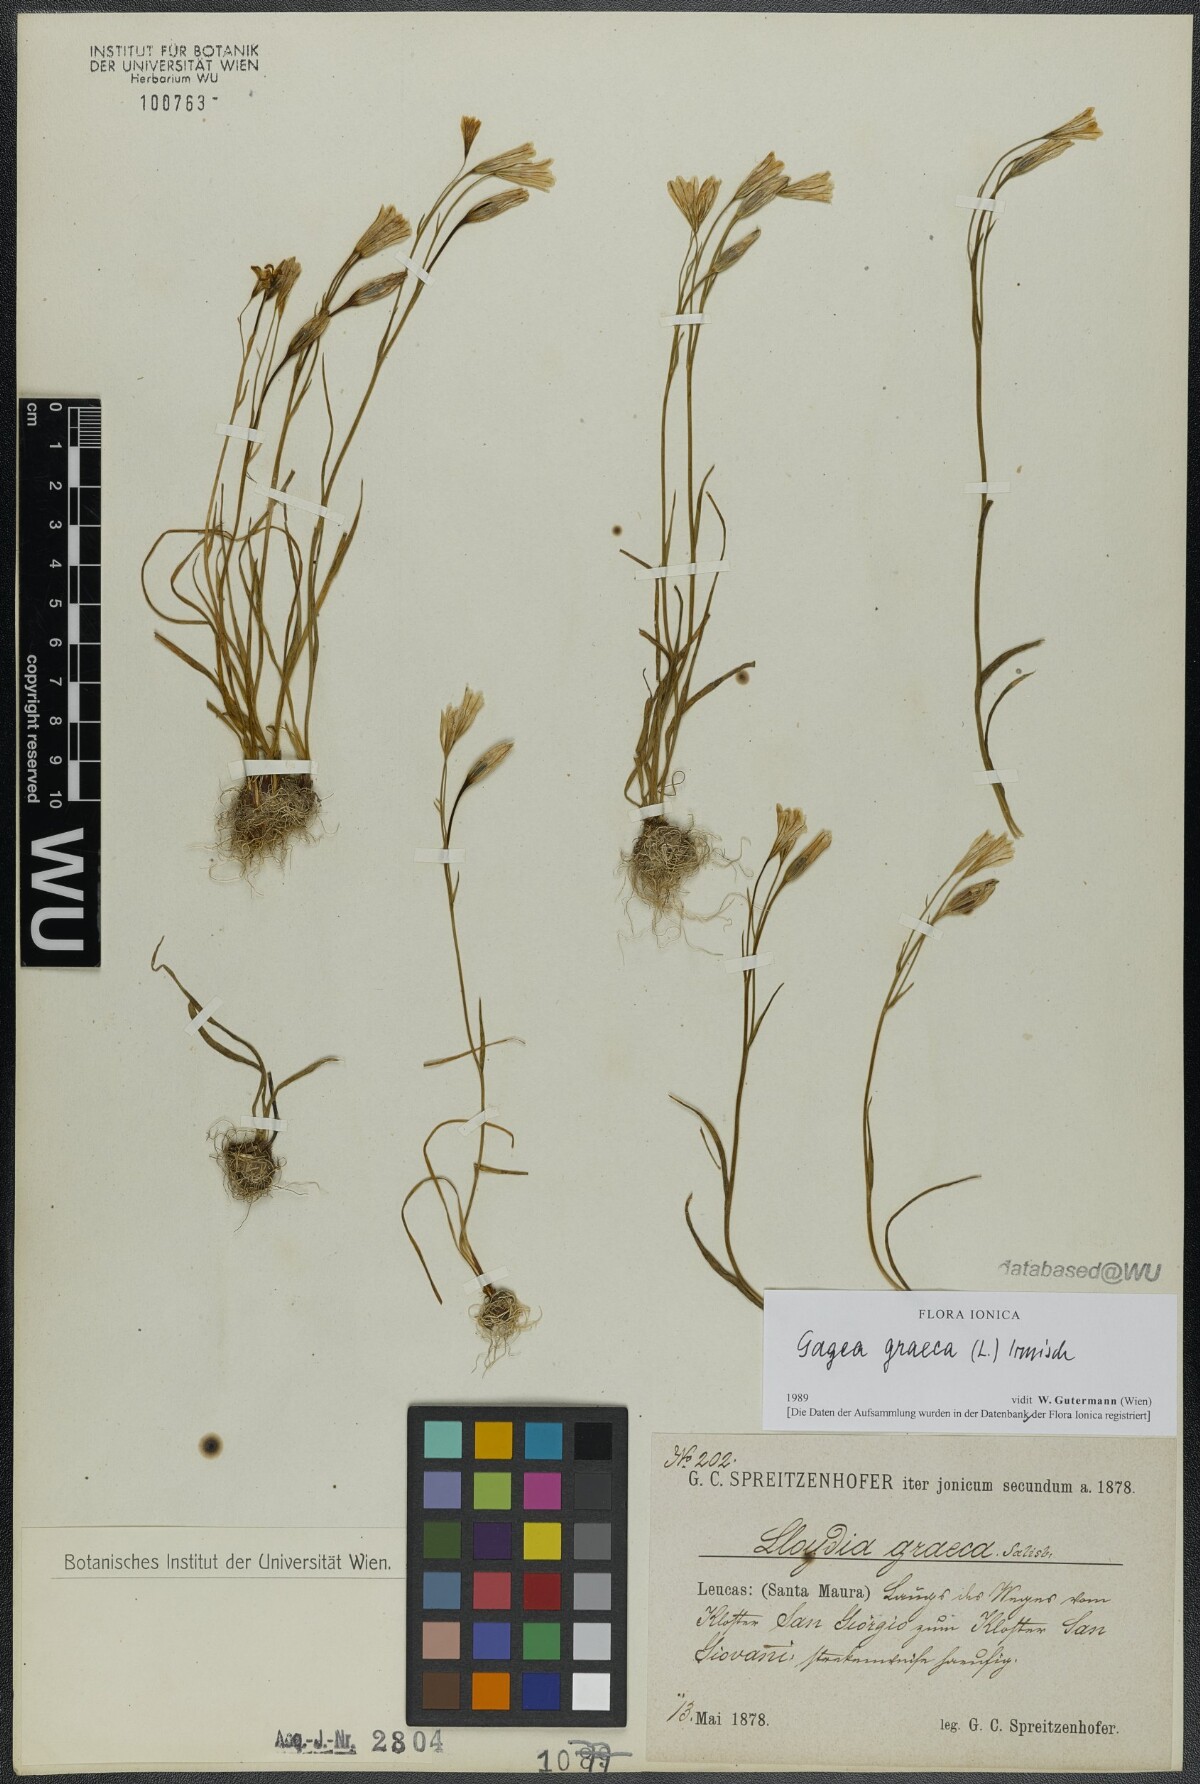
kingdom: Plantae
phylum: Tracheophyta
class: Liliopsida
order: Liliales
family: Liliaceae
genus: Gagea
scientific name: Gagea graeca
